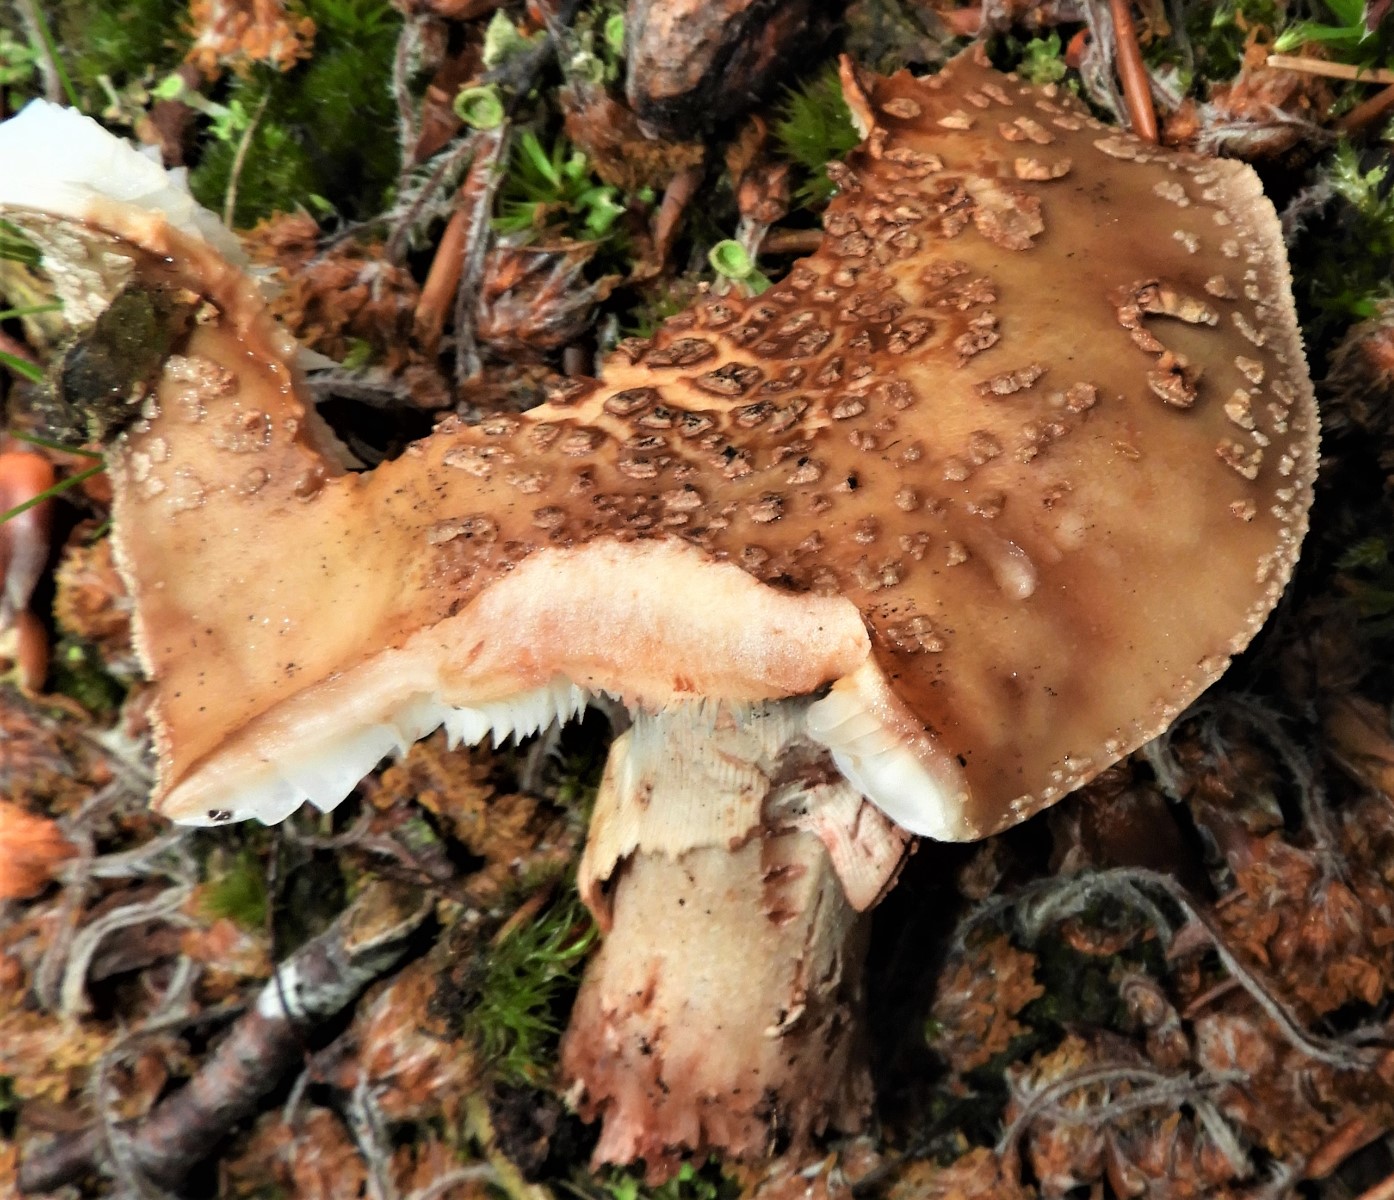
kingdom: Fungi
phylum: Basidiomycota
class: Agaricomycetes
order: Agaricales
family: Amanitaceae
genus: Amanita
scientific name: Amanita rubescens
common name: rødmende fluesvamp
